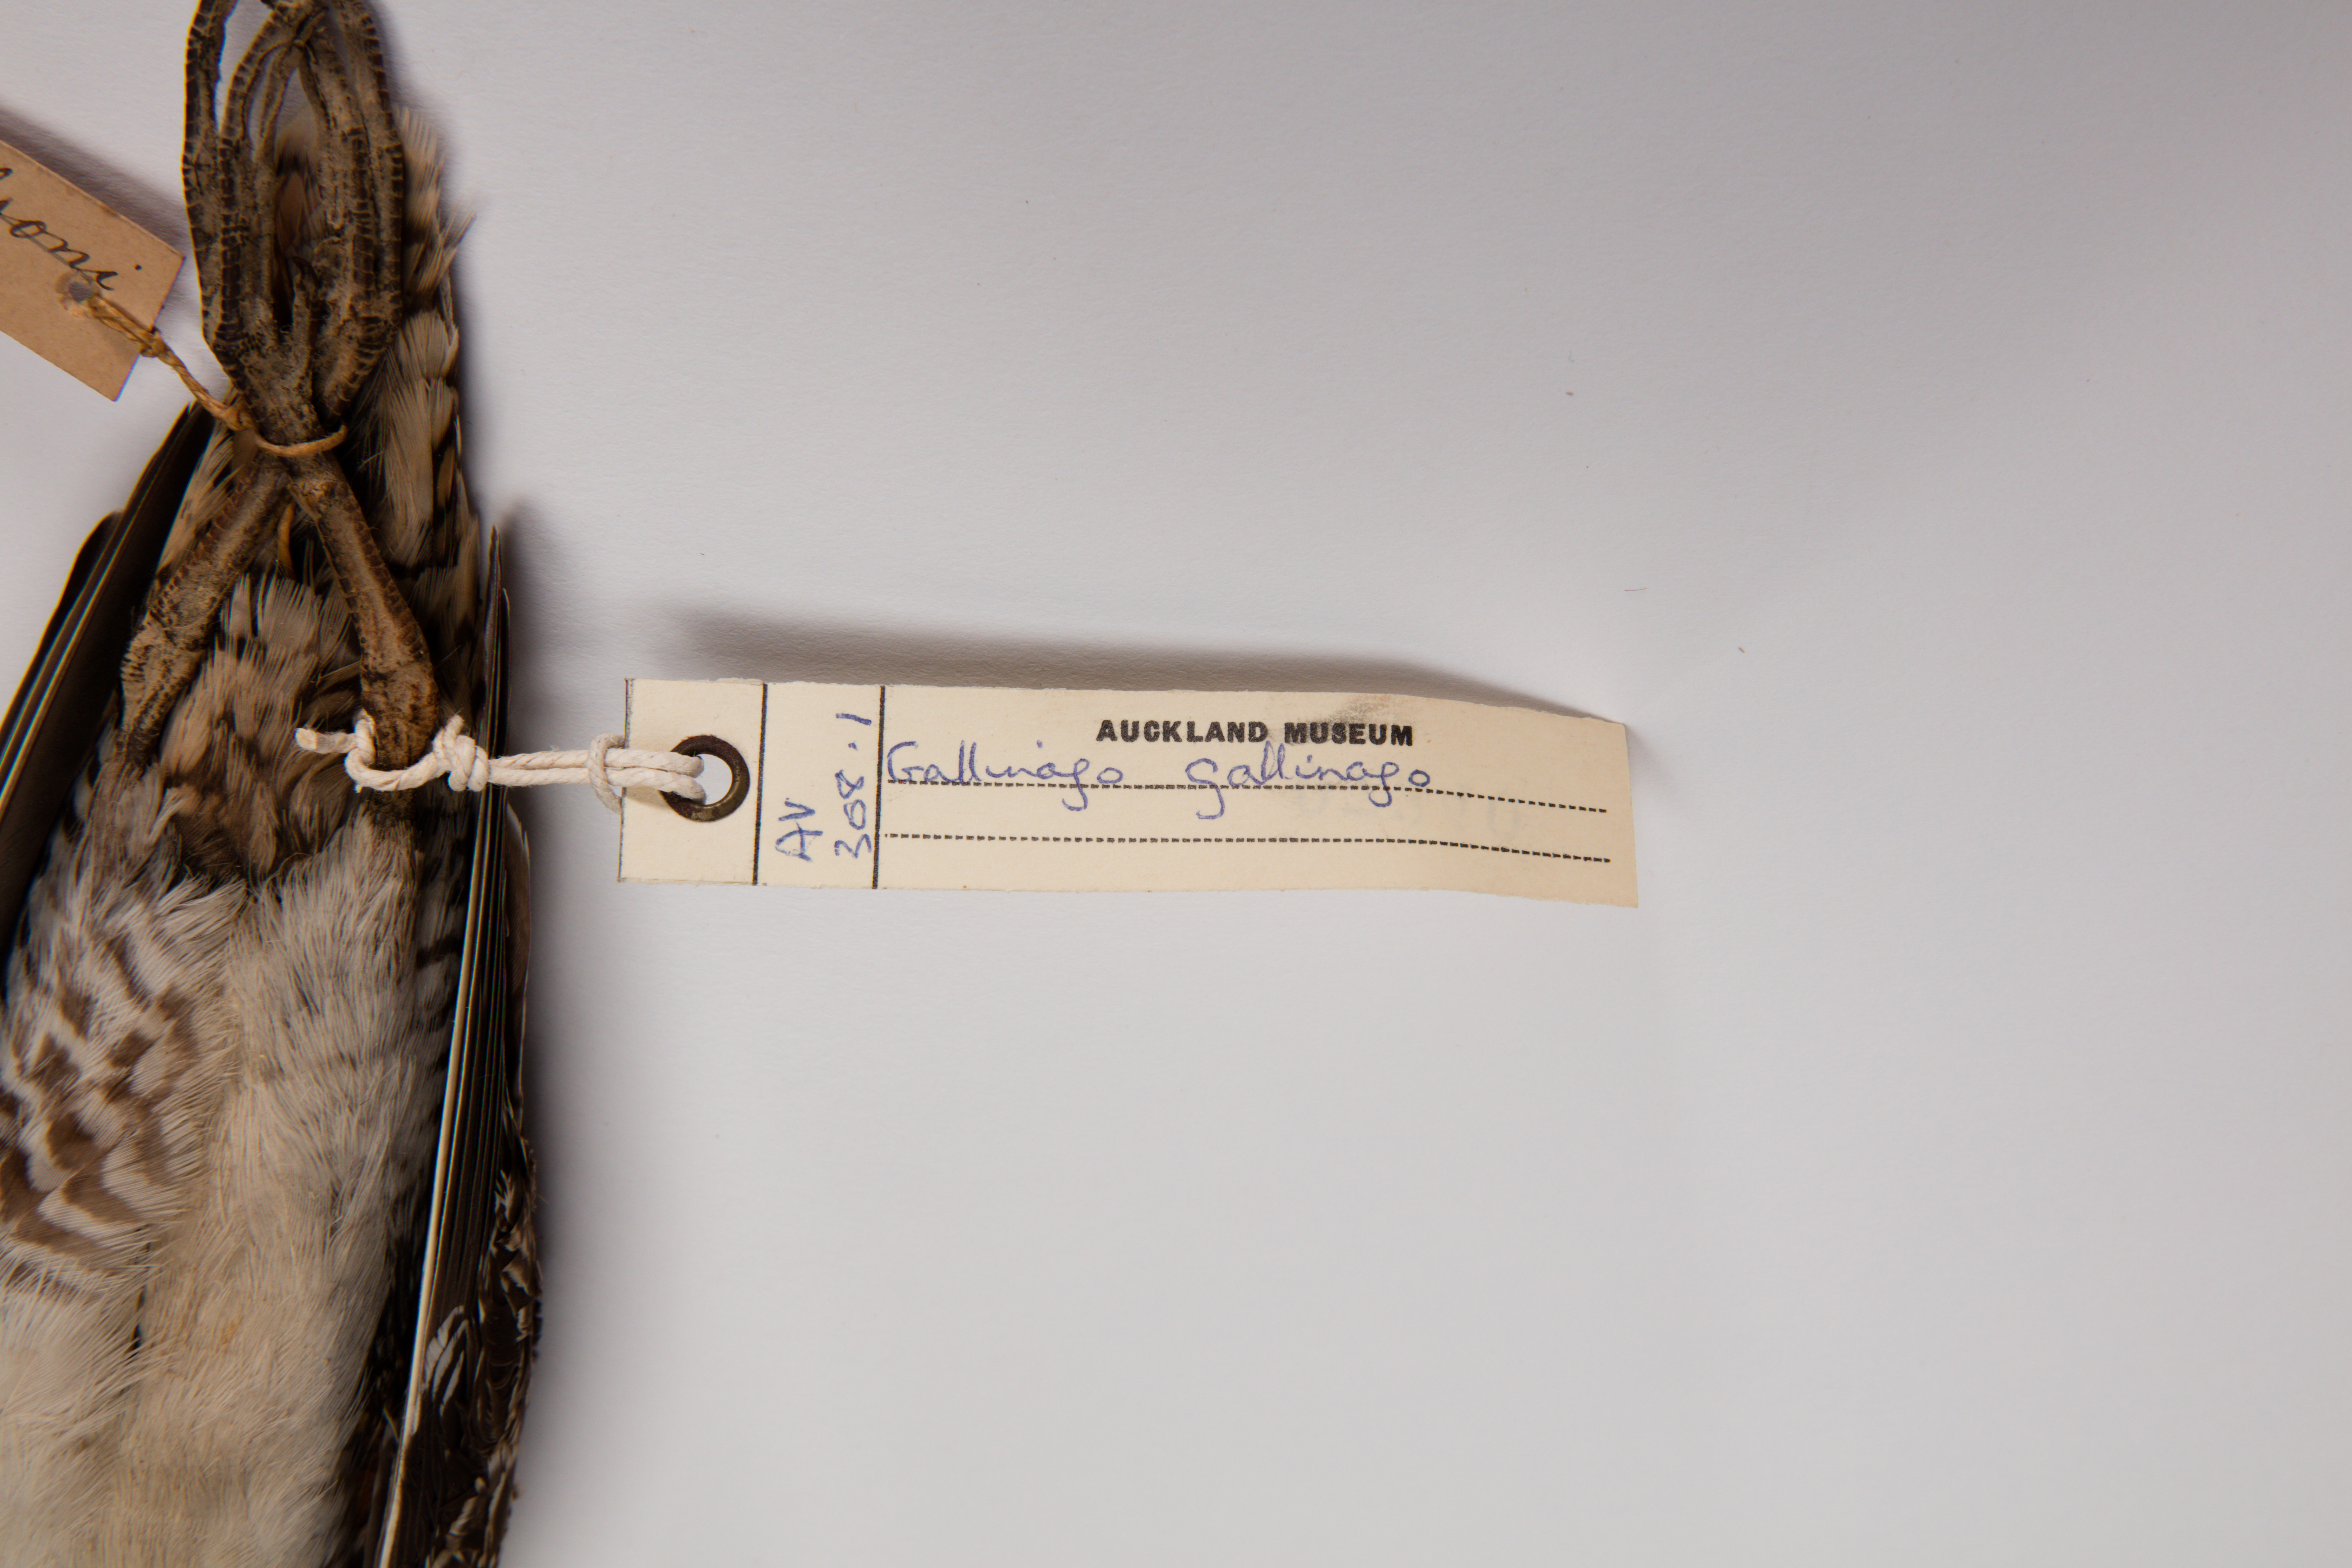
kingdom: Animalia
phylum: Chordata
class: Aves
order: Charadriiformes
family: Scolopacidae
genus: Gallinago
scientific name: Gallinago gallinago
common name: Common snipe
